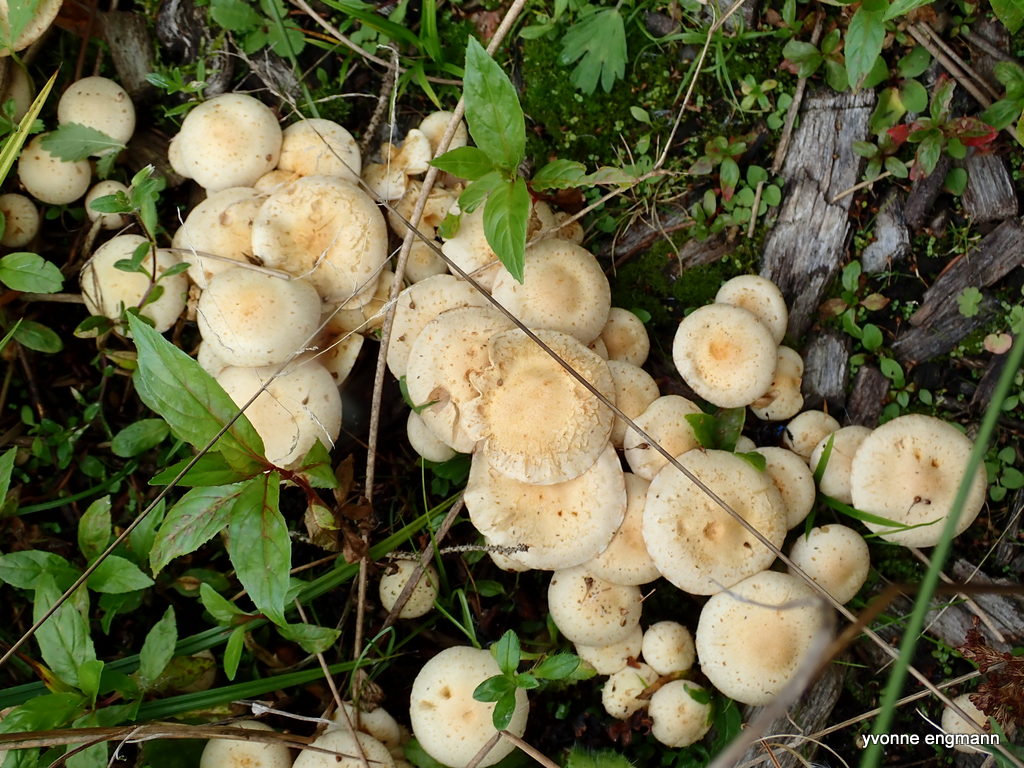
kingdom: Fungi
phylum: Basidiomycota
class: Agaricomycetes
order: Agaricales
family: Strophariaceae
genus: Pholiota
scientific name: Pholiota gummosa
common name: grøngul skælhat
